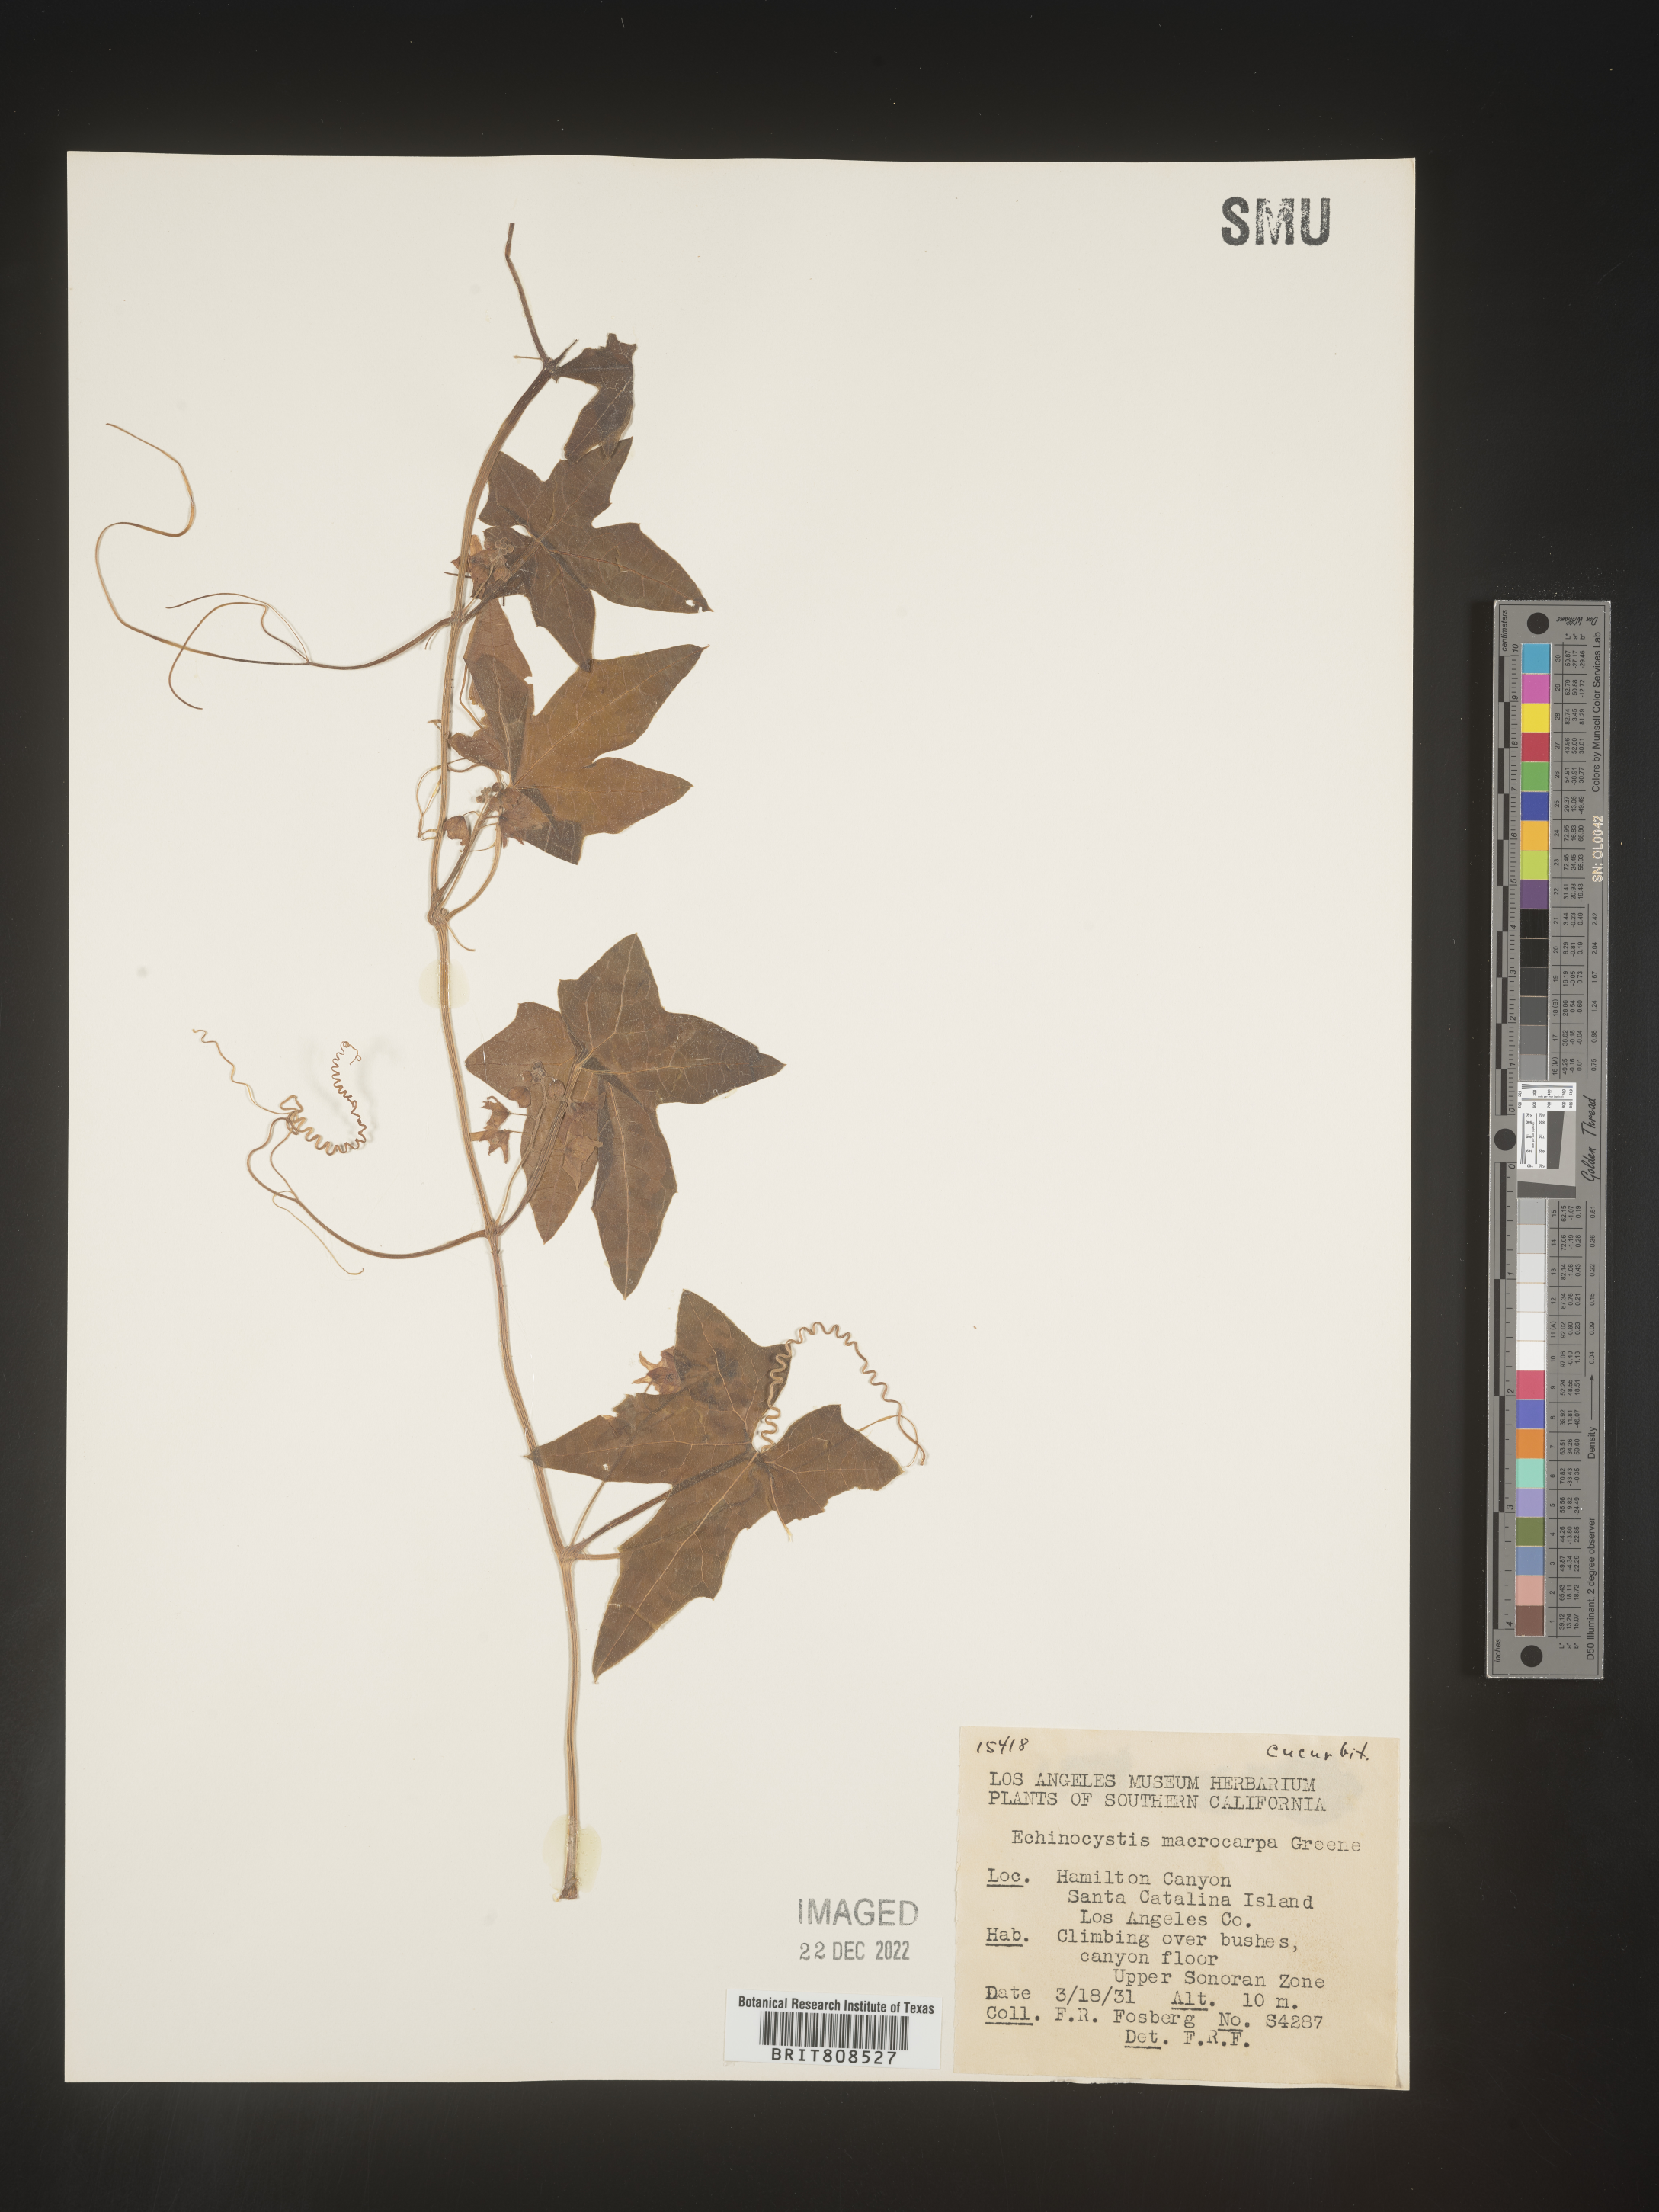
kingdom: Plantae
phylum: Tracheophyta
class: Magnoliopsida
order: Cucurbitales
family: Cucurbitaceae
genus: Marah
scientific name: Marah
